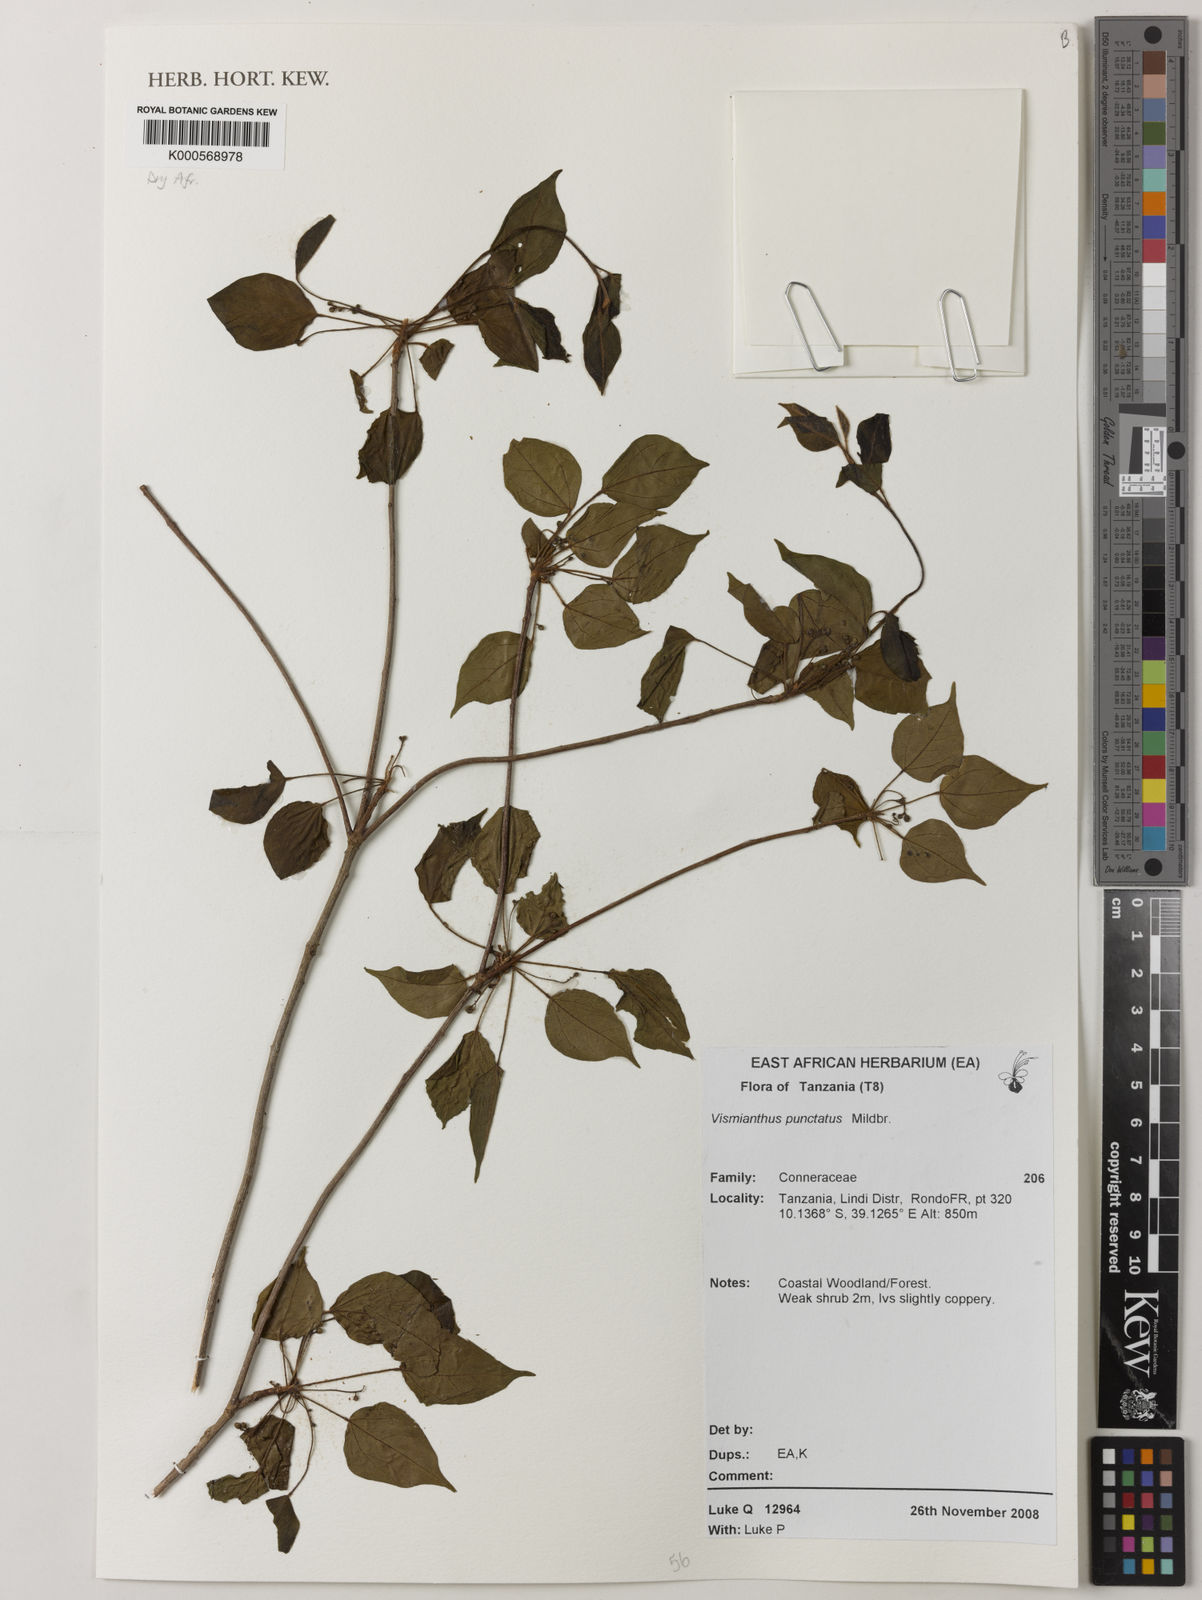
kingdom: Plantae
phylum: Tracheophyta
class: Magnoliopsida
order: Oxalidales
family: Connaraceae
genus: Vismianthus
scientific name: Vismianthus punctatus
